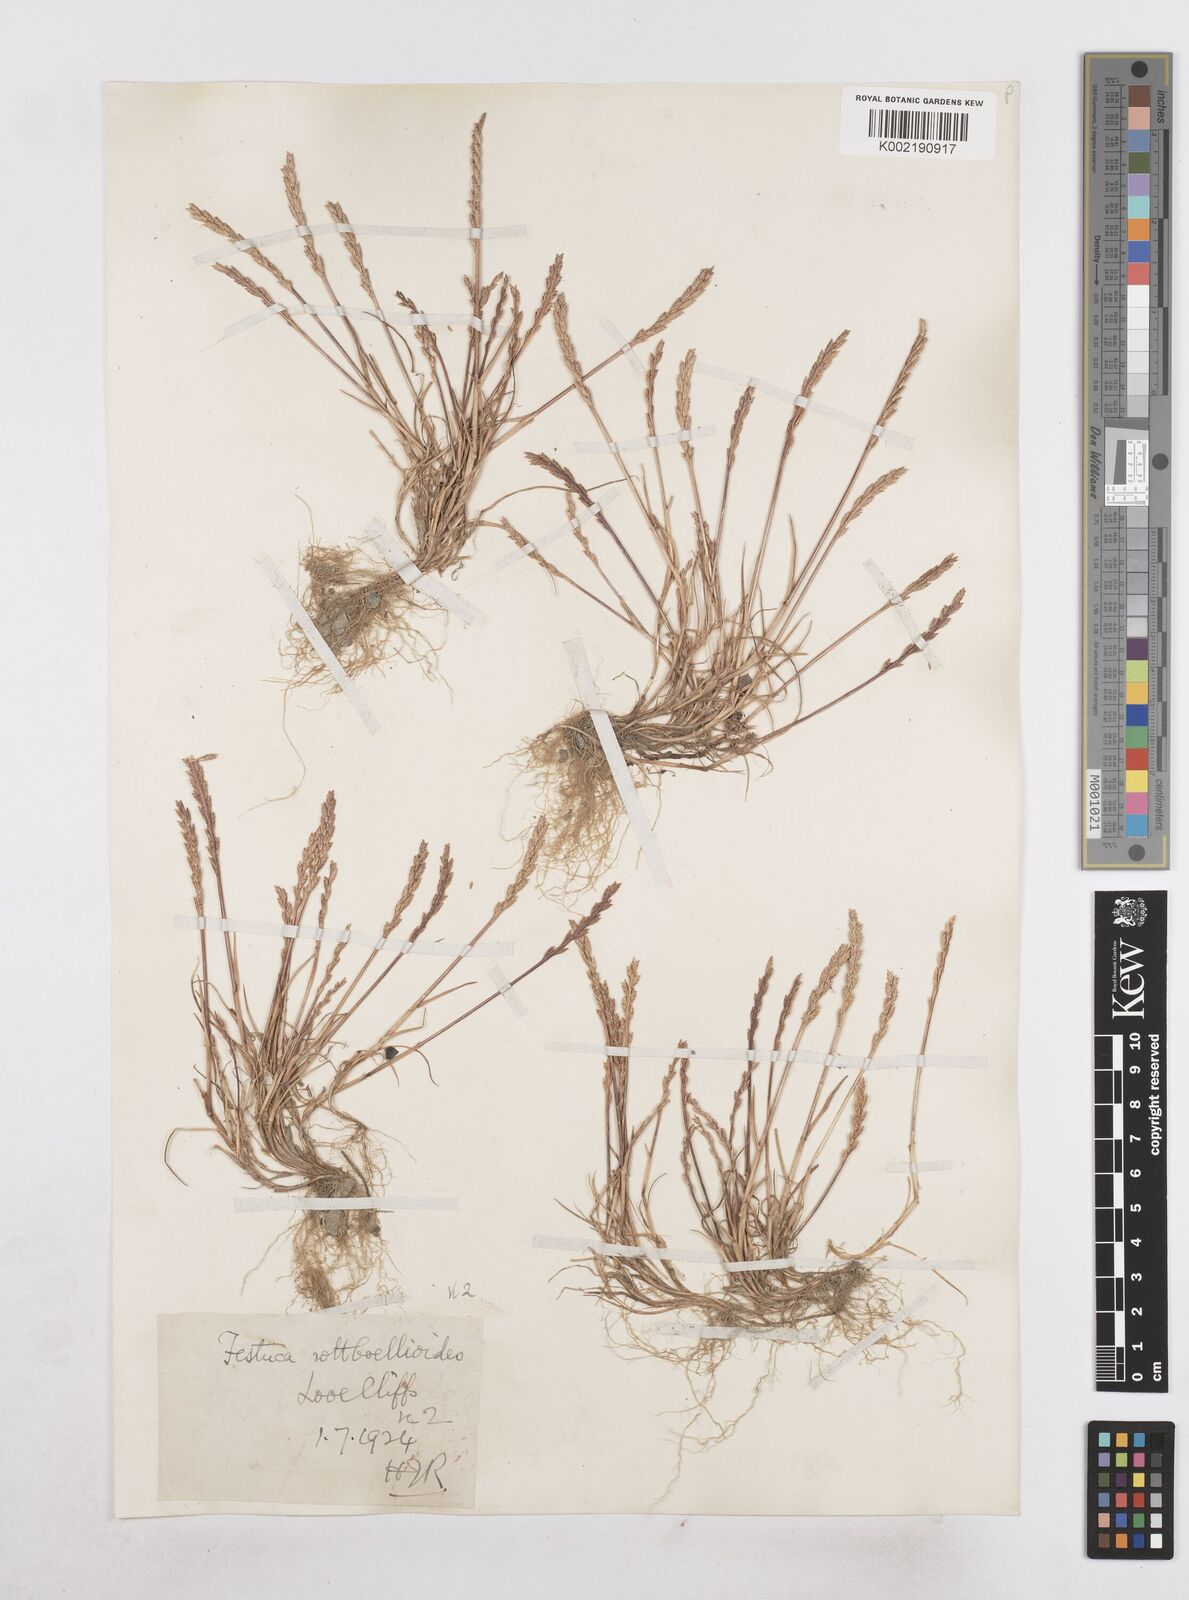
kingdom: Plantae
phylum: Tracheophyta
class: Liliopsida
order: Poales
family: Poaceae
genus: Catapodium
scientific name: Catapodium marinum
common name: Sea fern-grass
